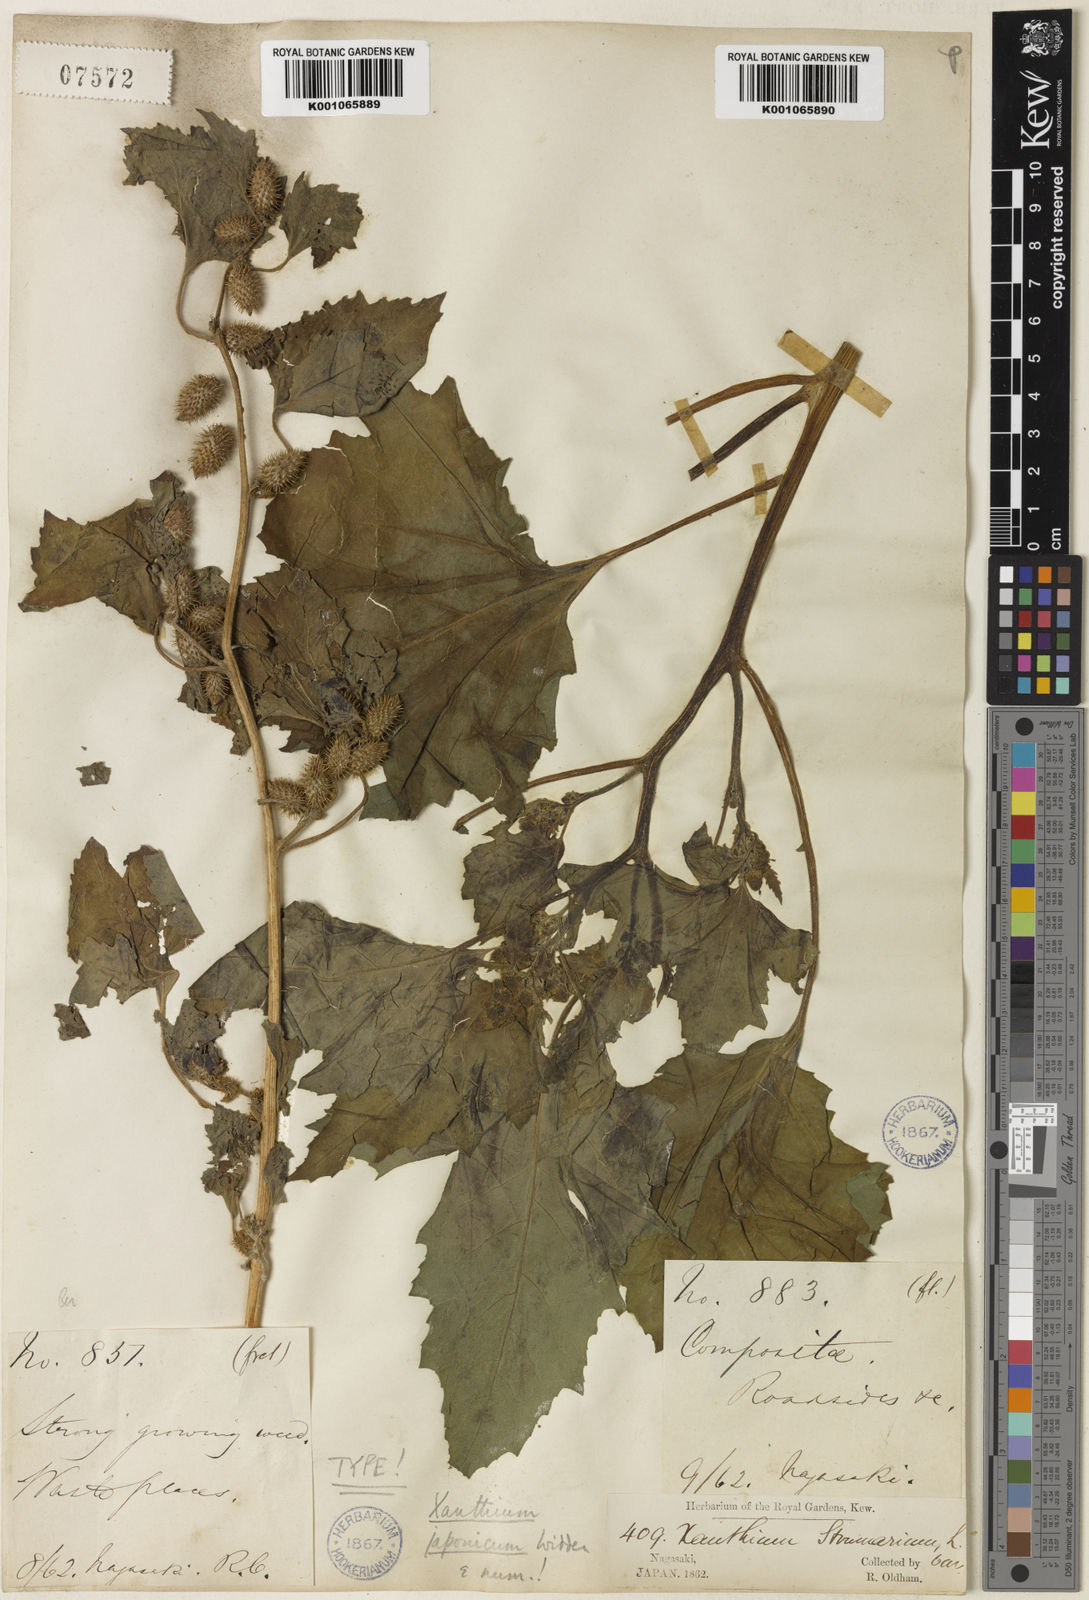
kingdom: Plantae
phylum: Tracheophyta
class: Magnoliopsida
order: Asterales
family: Asteraceae
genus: Xanthium
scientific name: Xanthium strumarium
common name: Rough cocklebur
